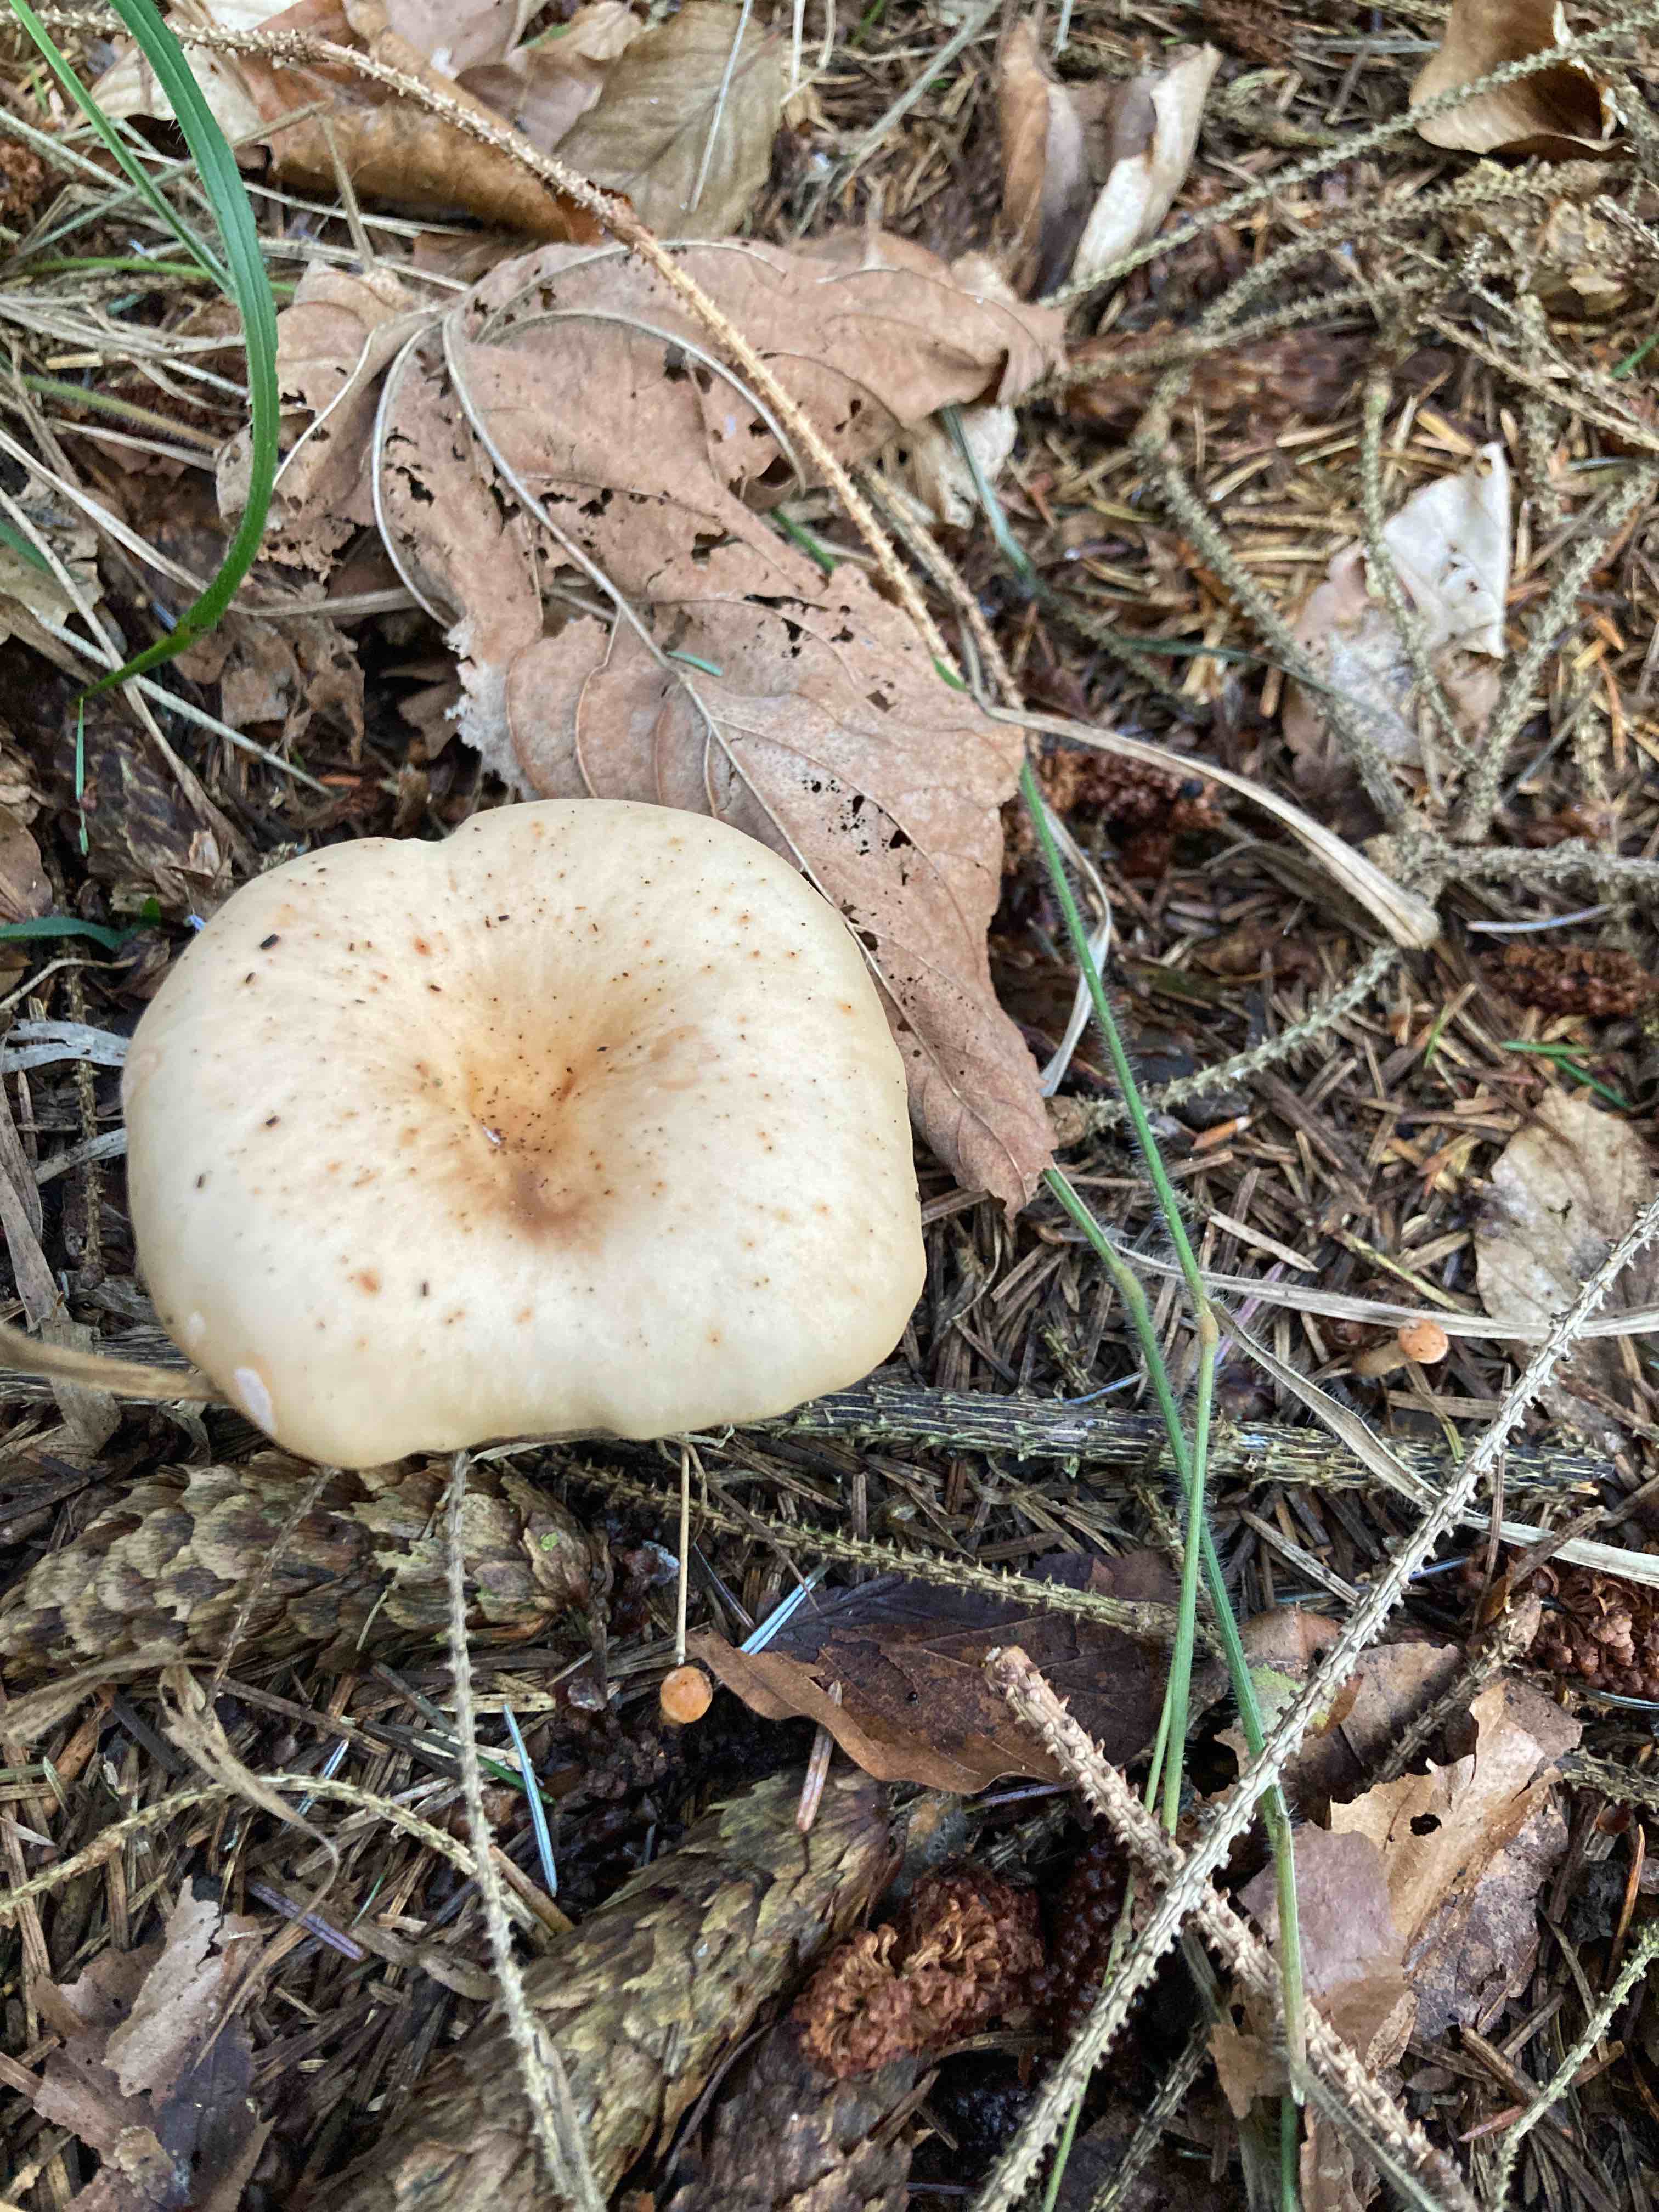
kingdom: Fungi
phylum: Basidiomycota
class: Agaricomycetes
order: Agaricales
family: Tricholomataceae
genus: Paralepista
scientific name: Paralepista flaccida
